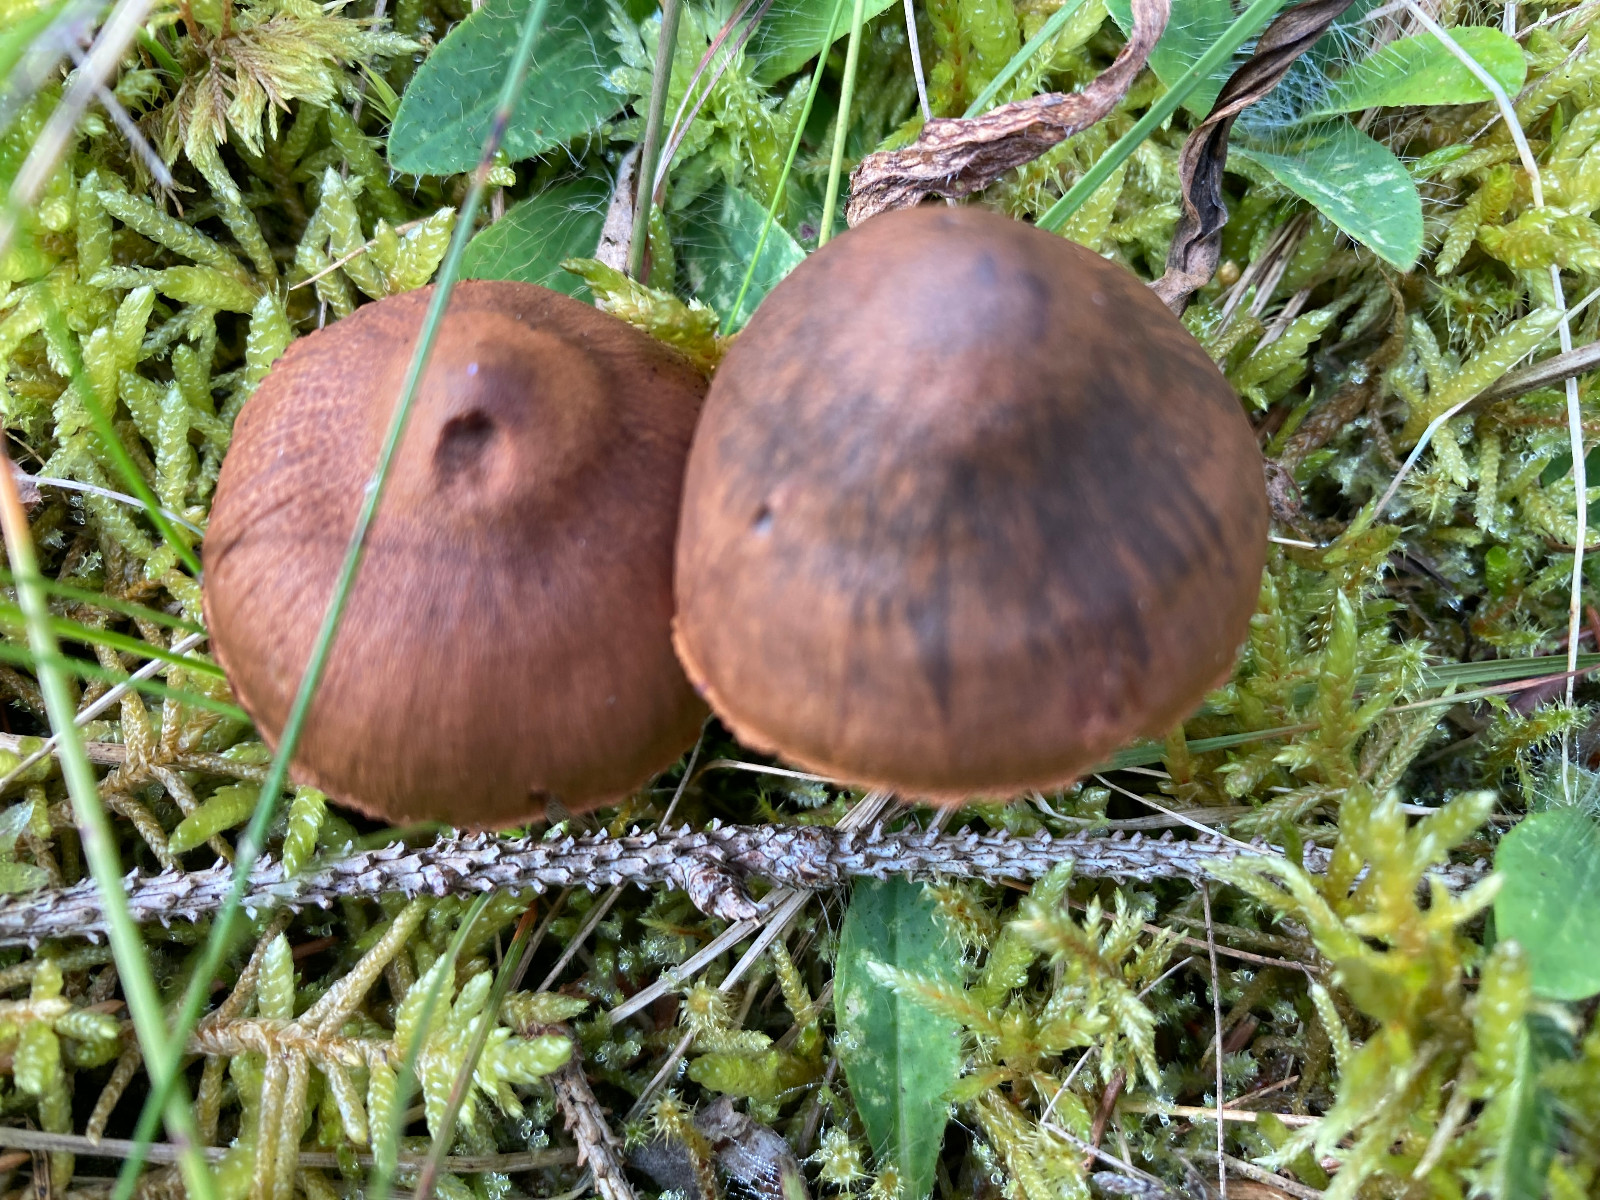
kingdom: Fungi
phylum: Basidiomycota
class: Agaricomycetes
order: Agaricales
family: Cortinariaceae
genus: Cortinarius
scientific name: Cortinarius
